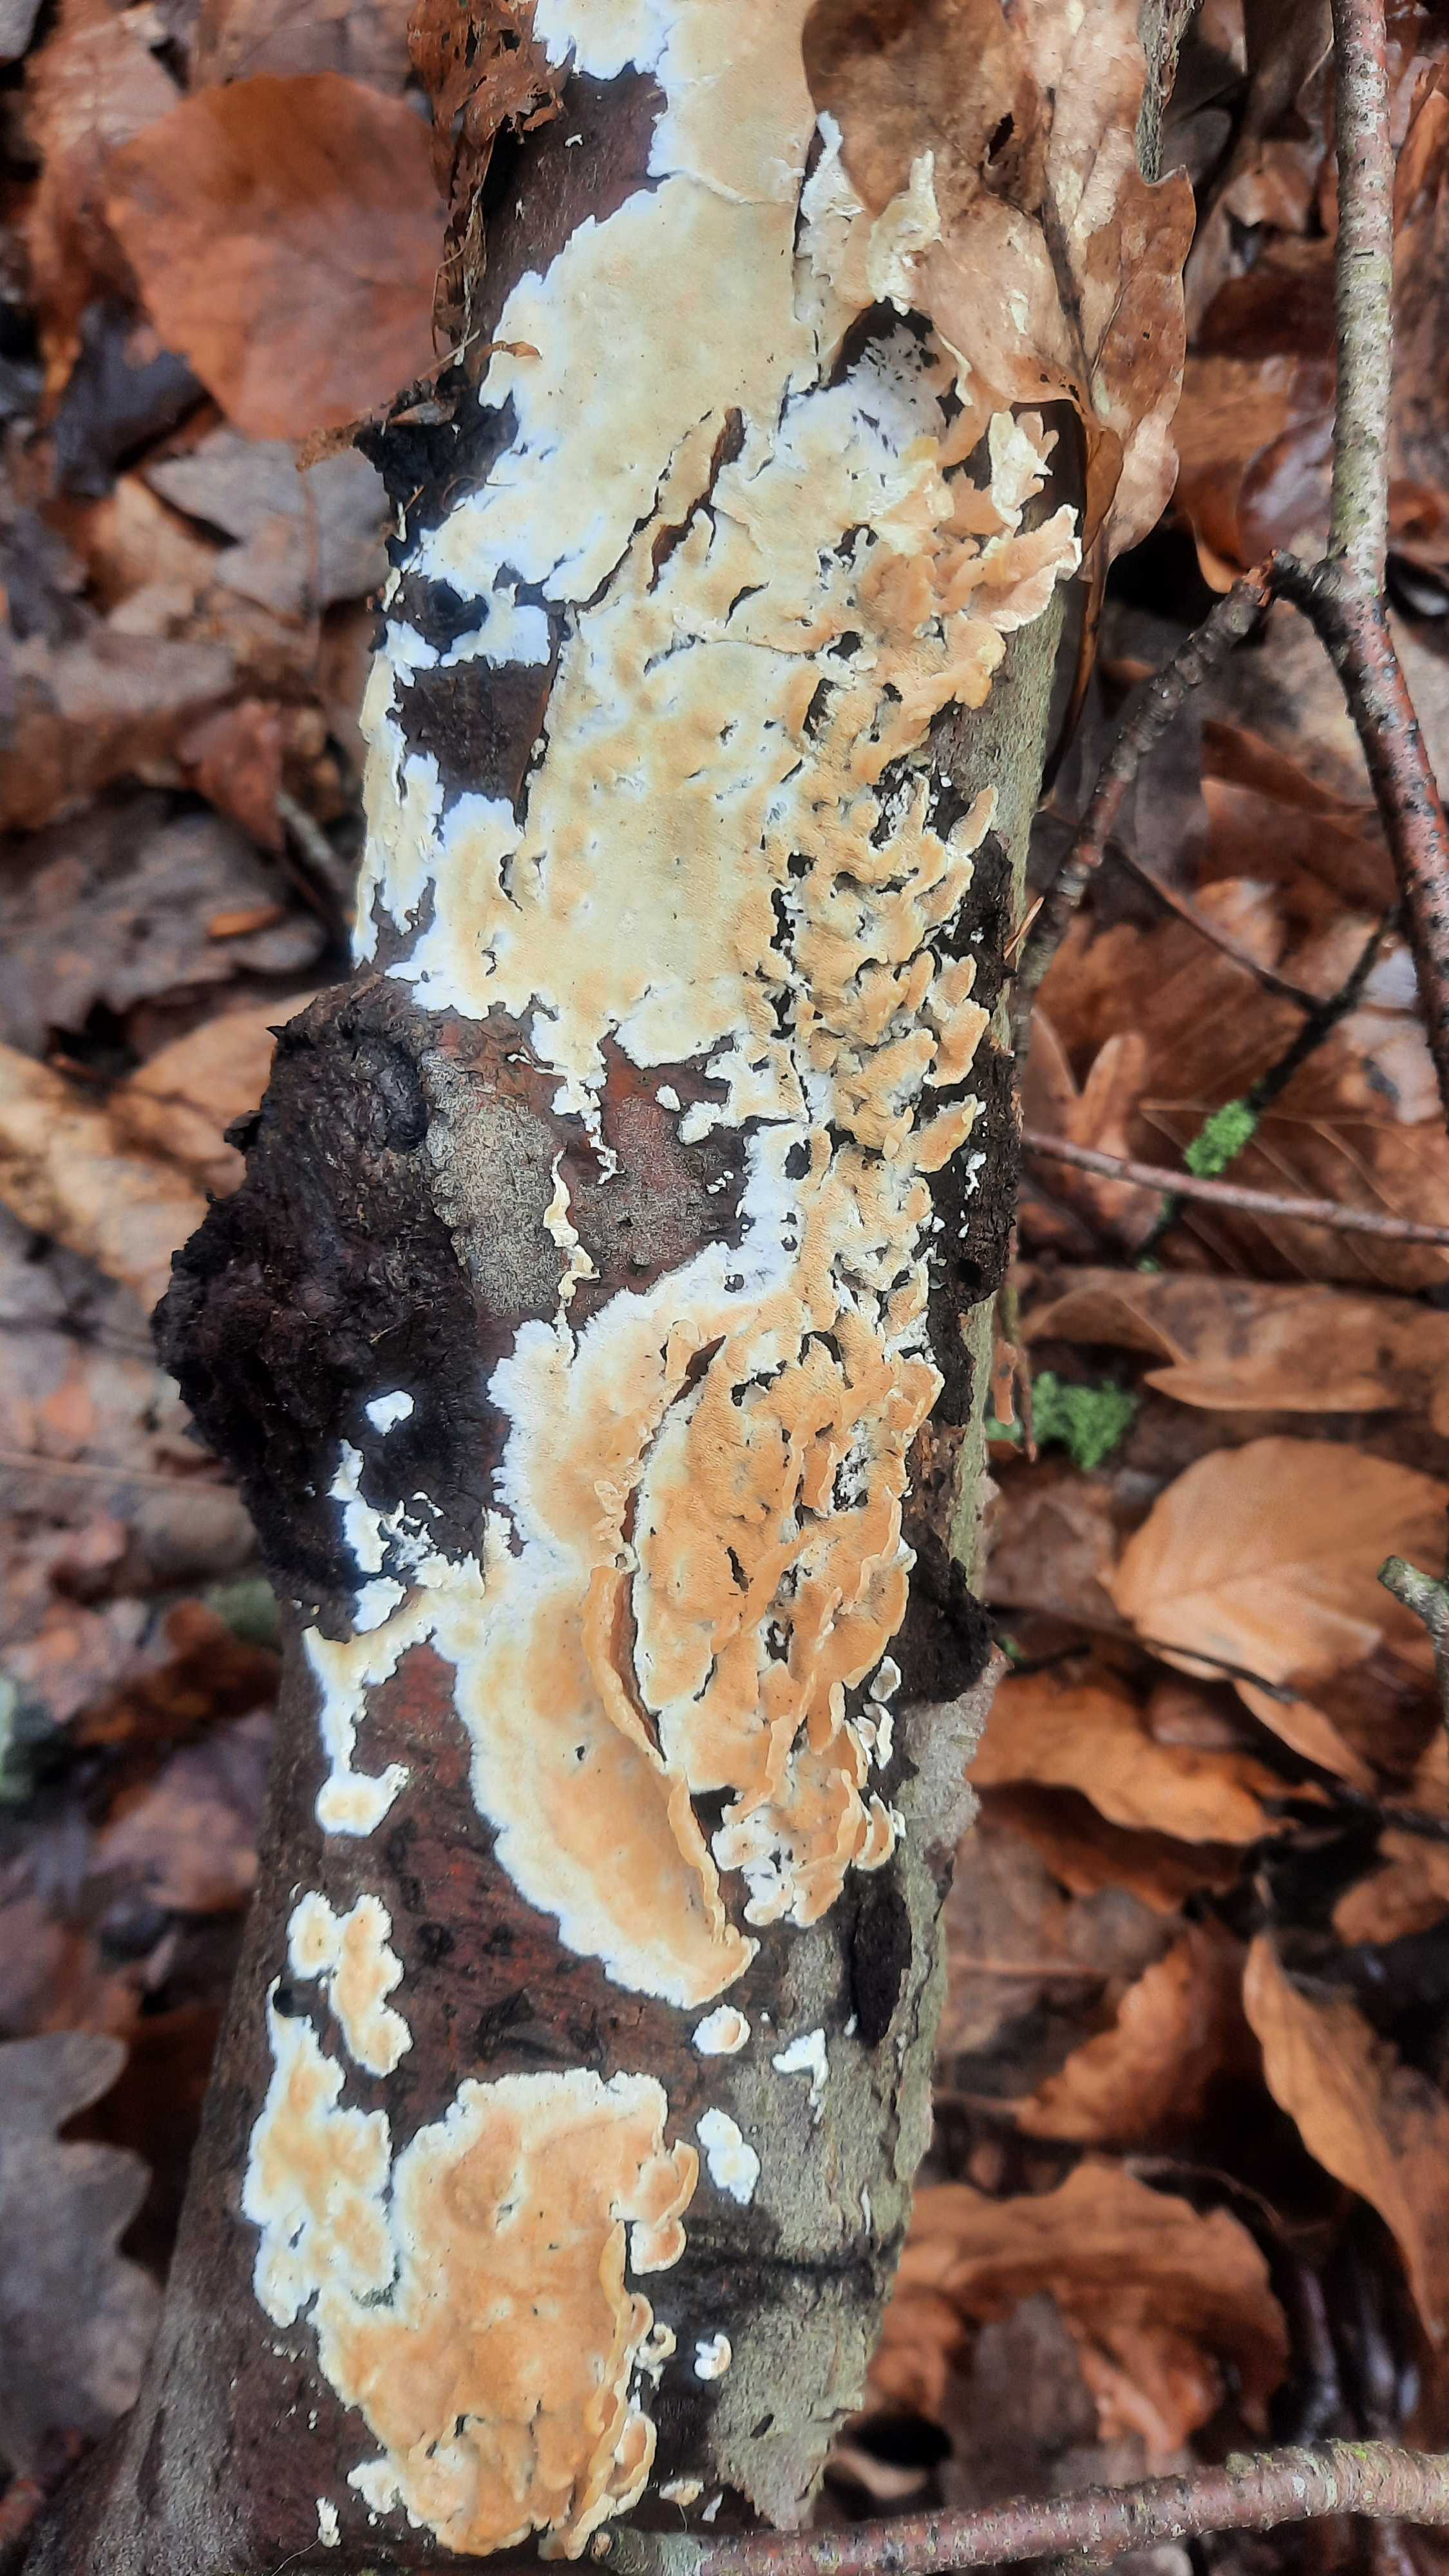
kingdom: Fungi
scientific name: Fungi
